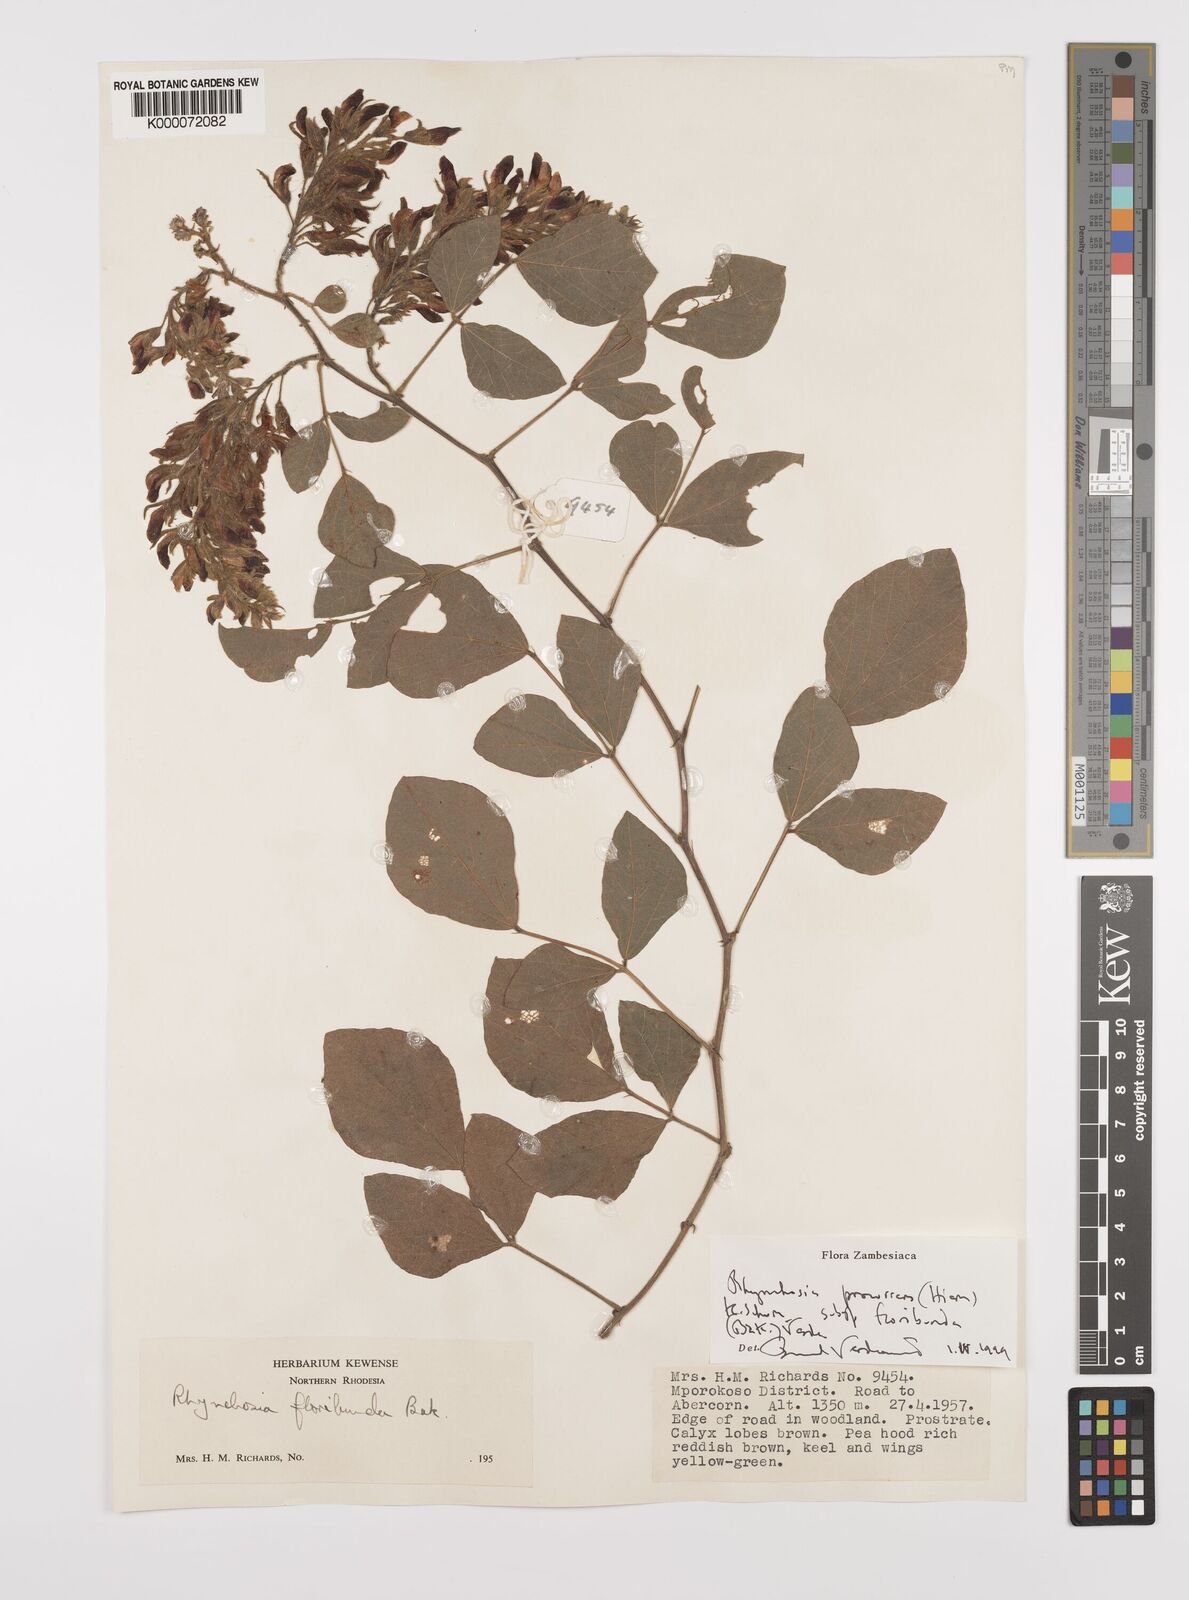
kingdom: Plantae
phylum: Tracheophyta
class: Magnoliopsida
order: Fabales
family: Fabaceae
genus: Rhynchosia
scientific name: Rhynchosia procurrens
